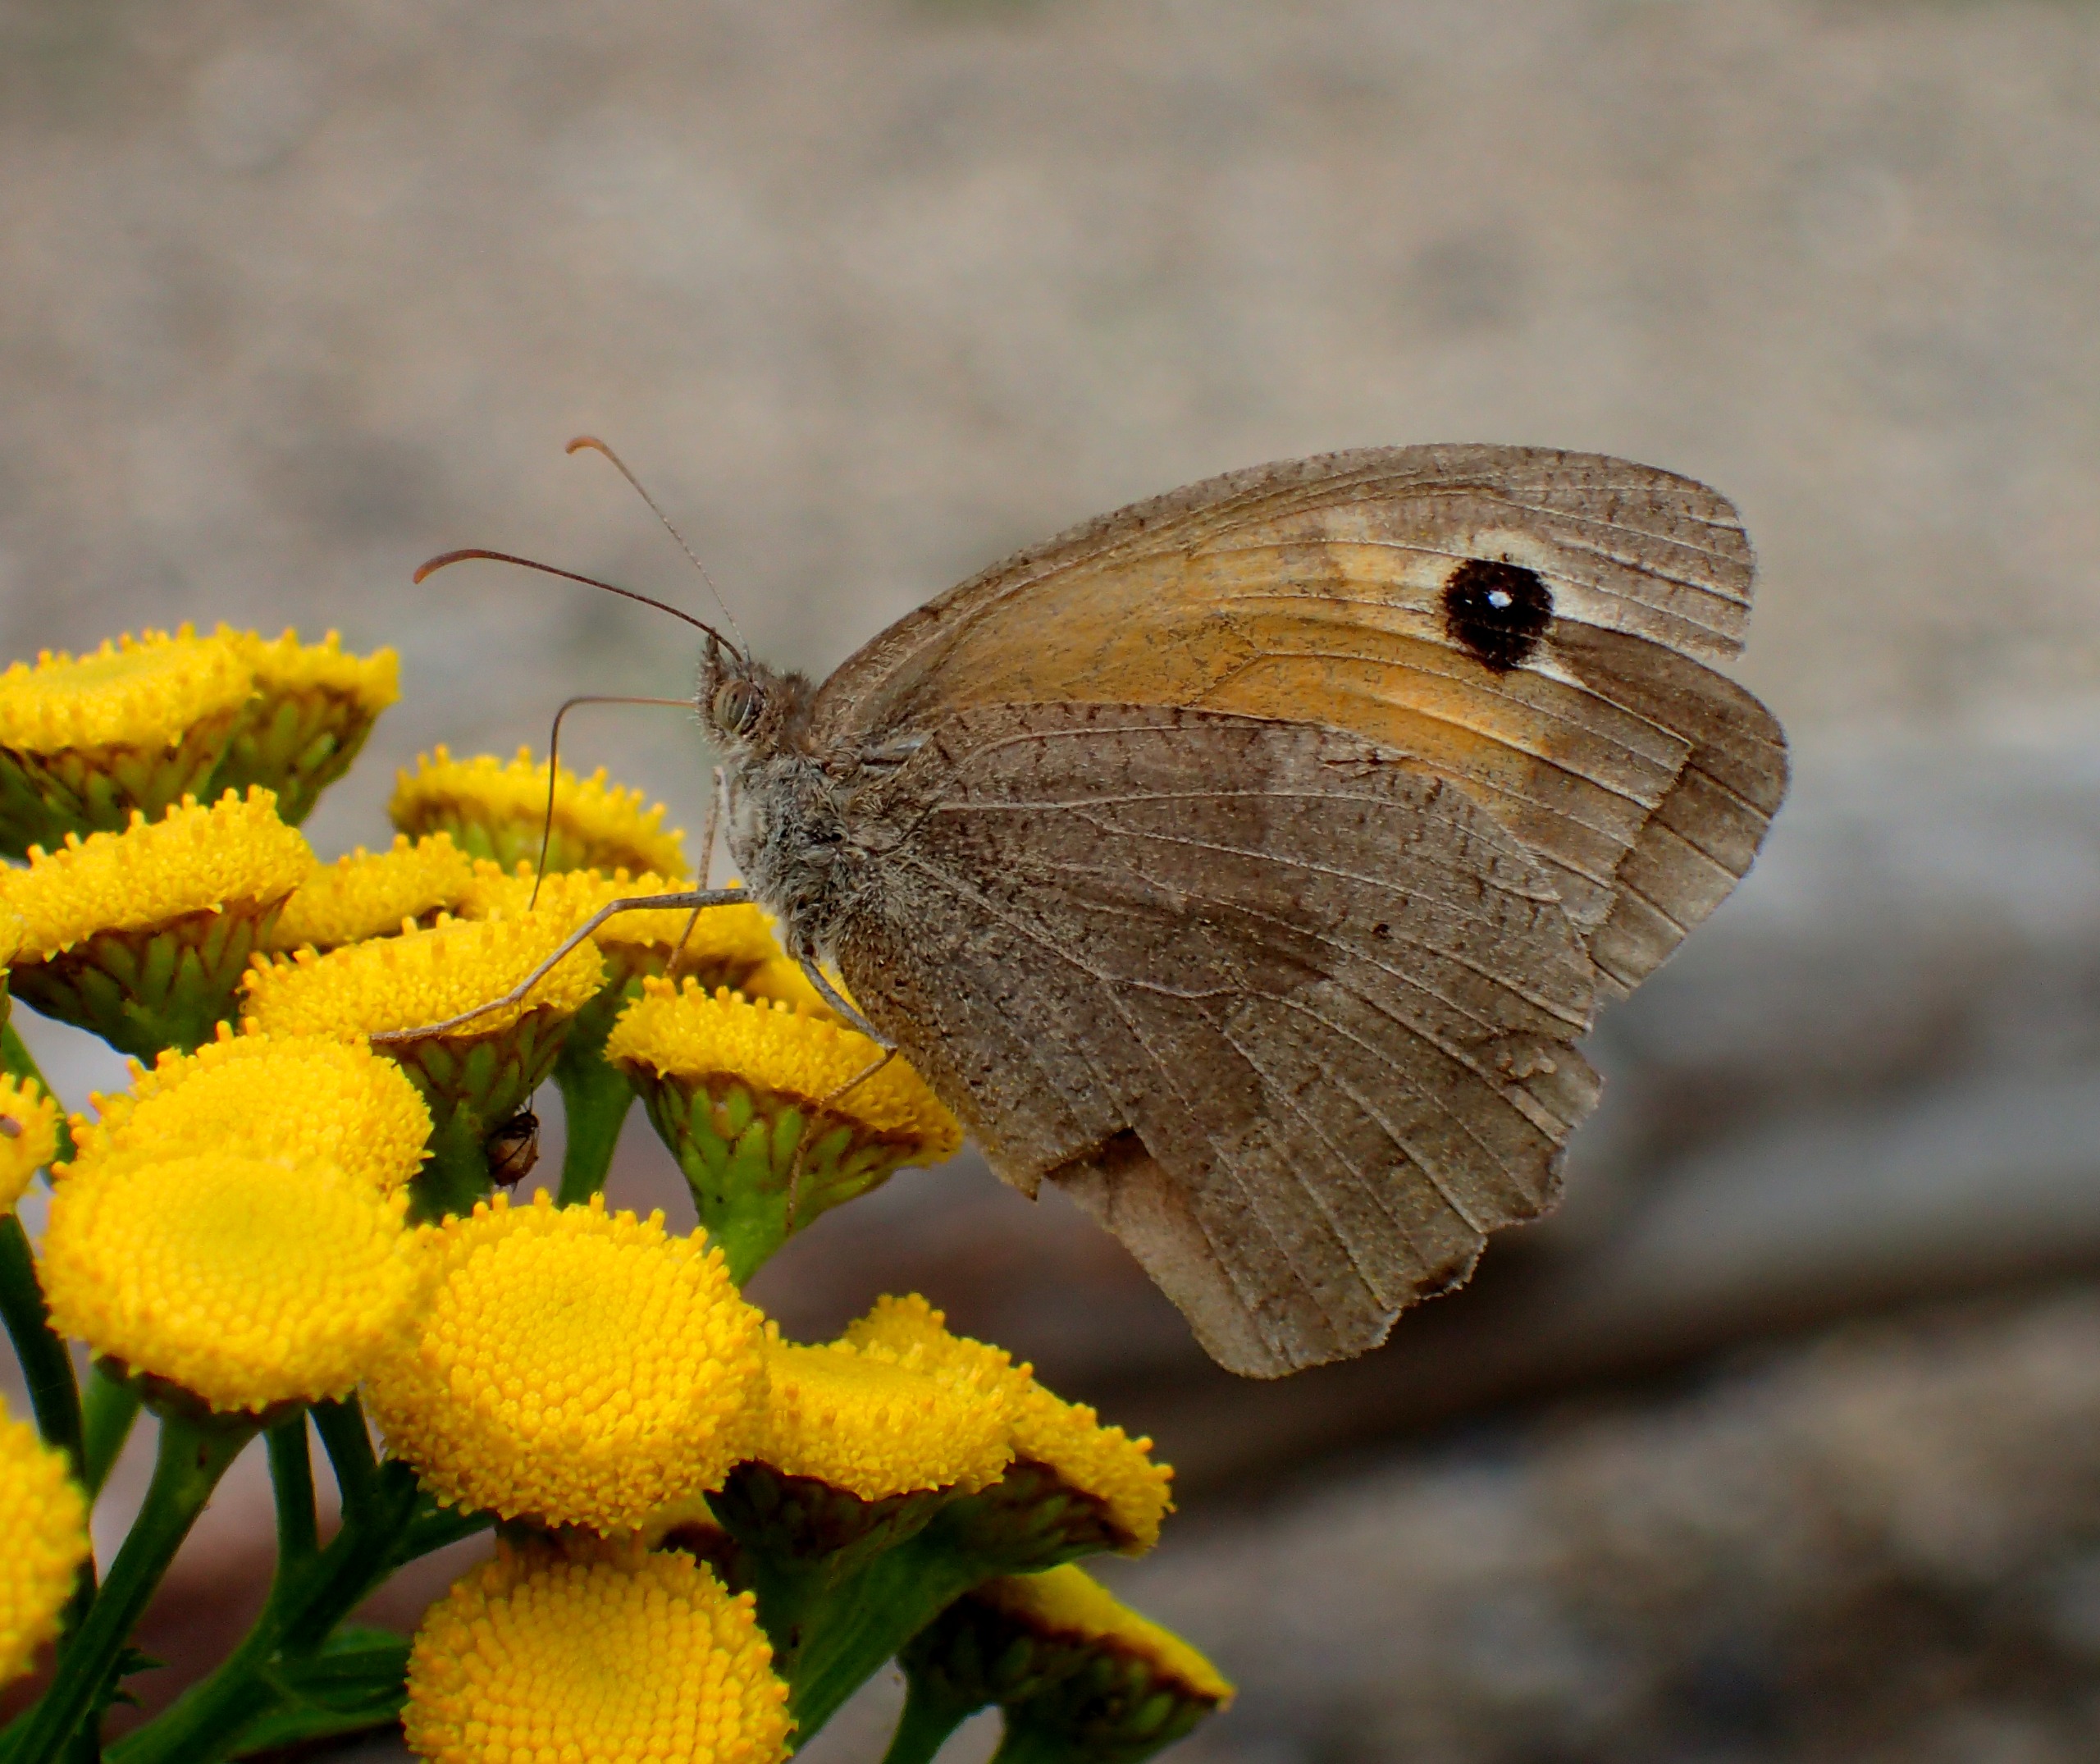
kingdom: Animalia
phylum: Arthropoda
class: Insecta
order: Lepidoptera
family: Nymphalidae
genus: Maniola
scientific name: Maniola jurtina
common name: Græsrandøje
